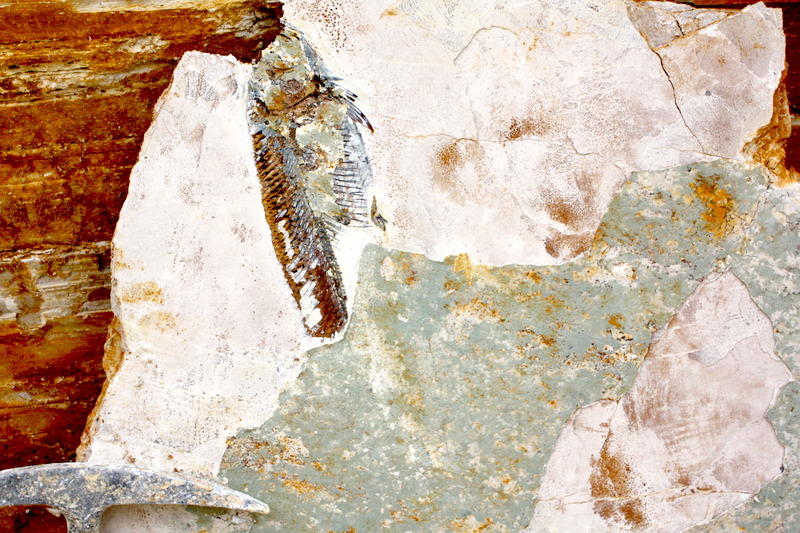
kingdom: Animalia
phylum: Chordata
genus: Thrissops
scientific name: Thrissops formosus
